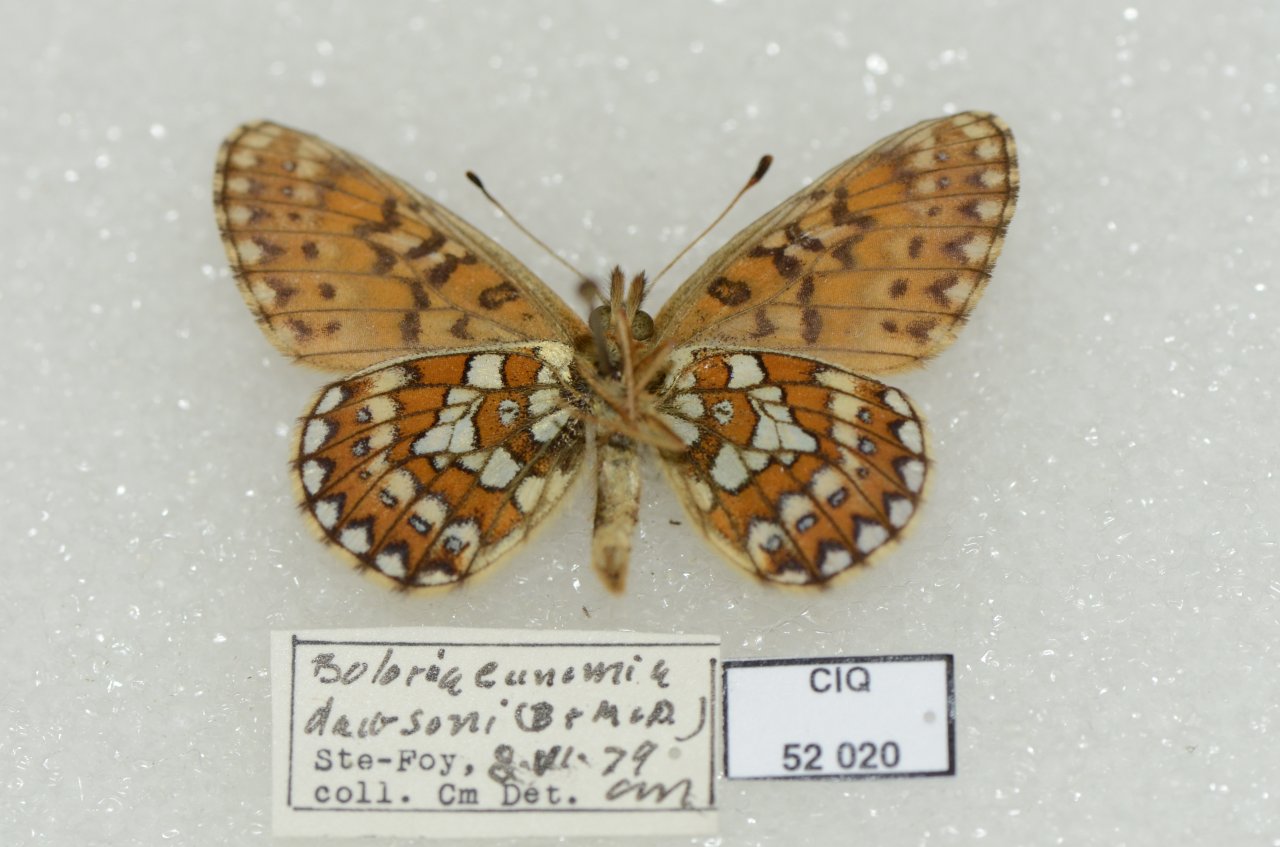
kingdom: Animalia
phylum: Arthropoda
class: Insecta
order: Lepidoptera
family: Nymphalidae
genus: Boloria
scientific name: Boloria eunomia
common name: Bog Fritillary
